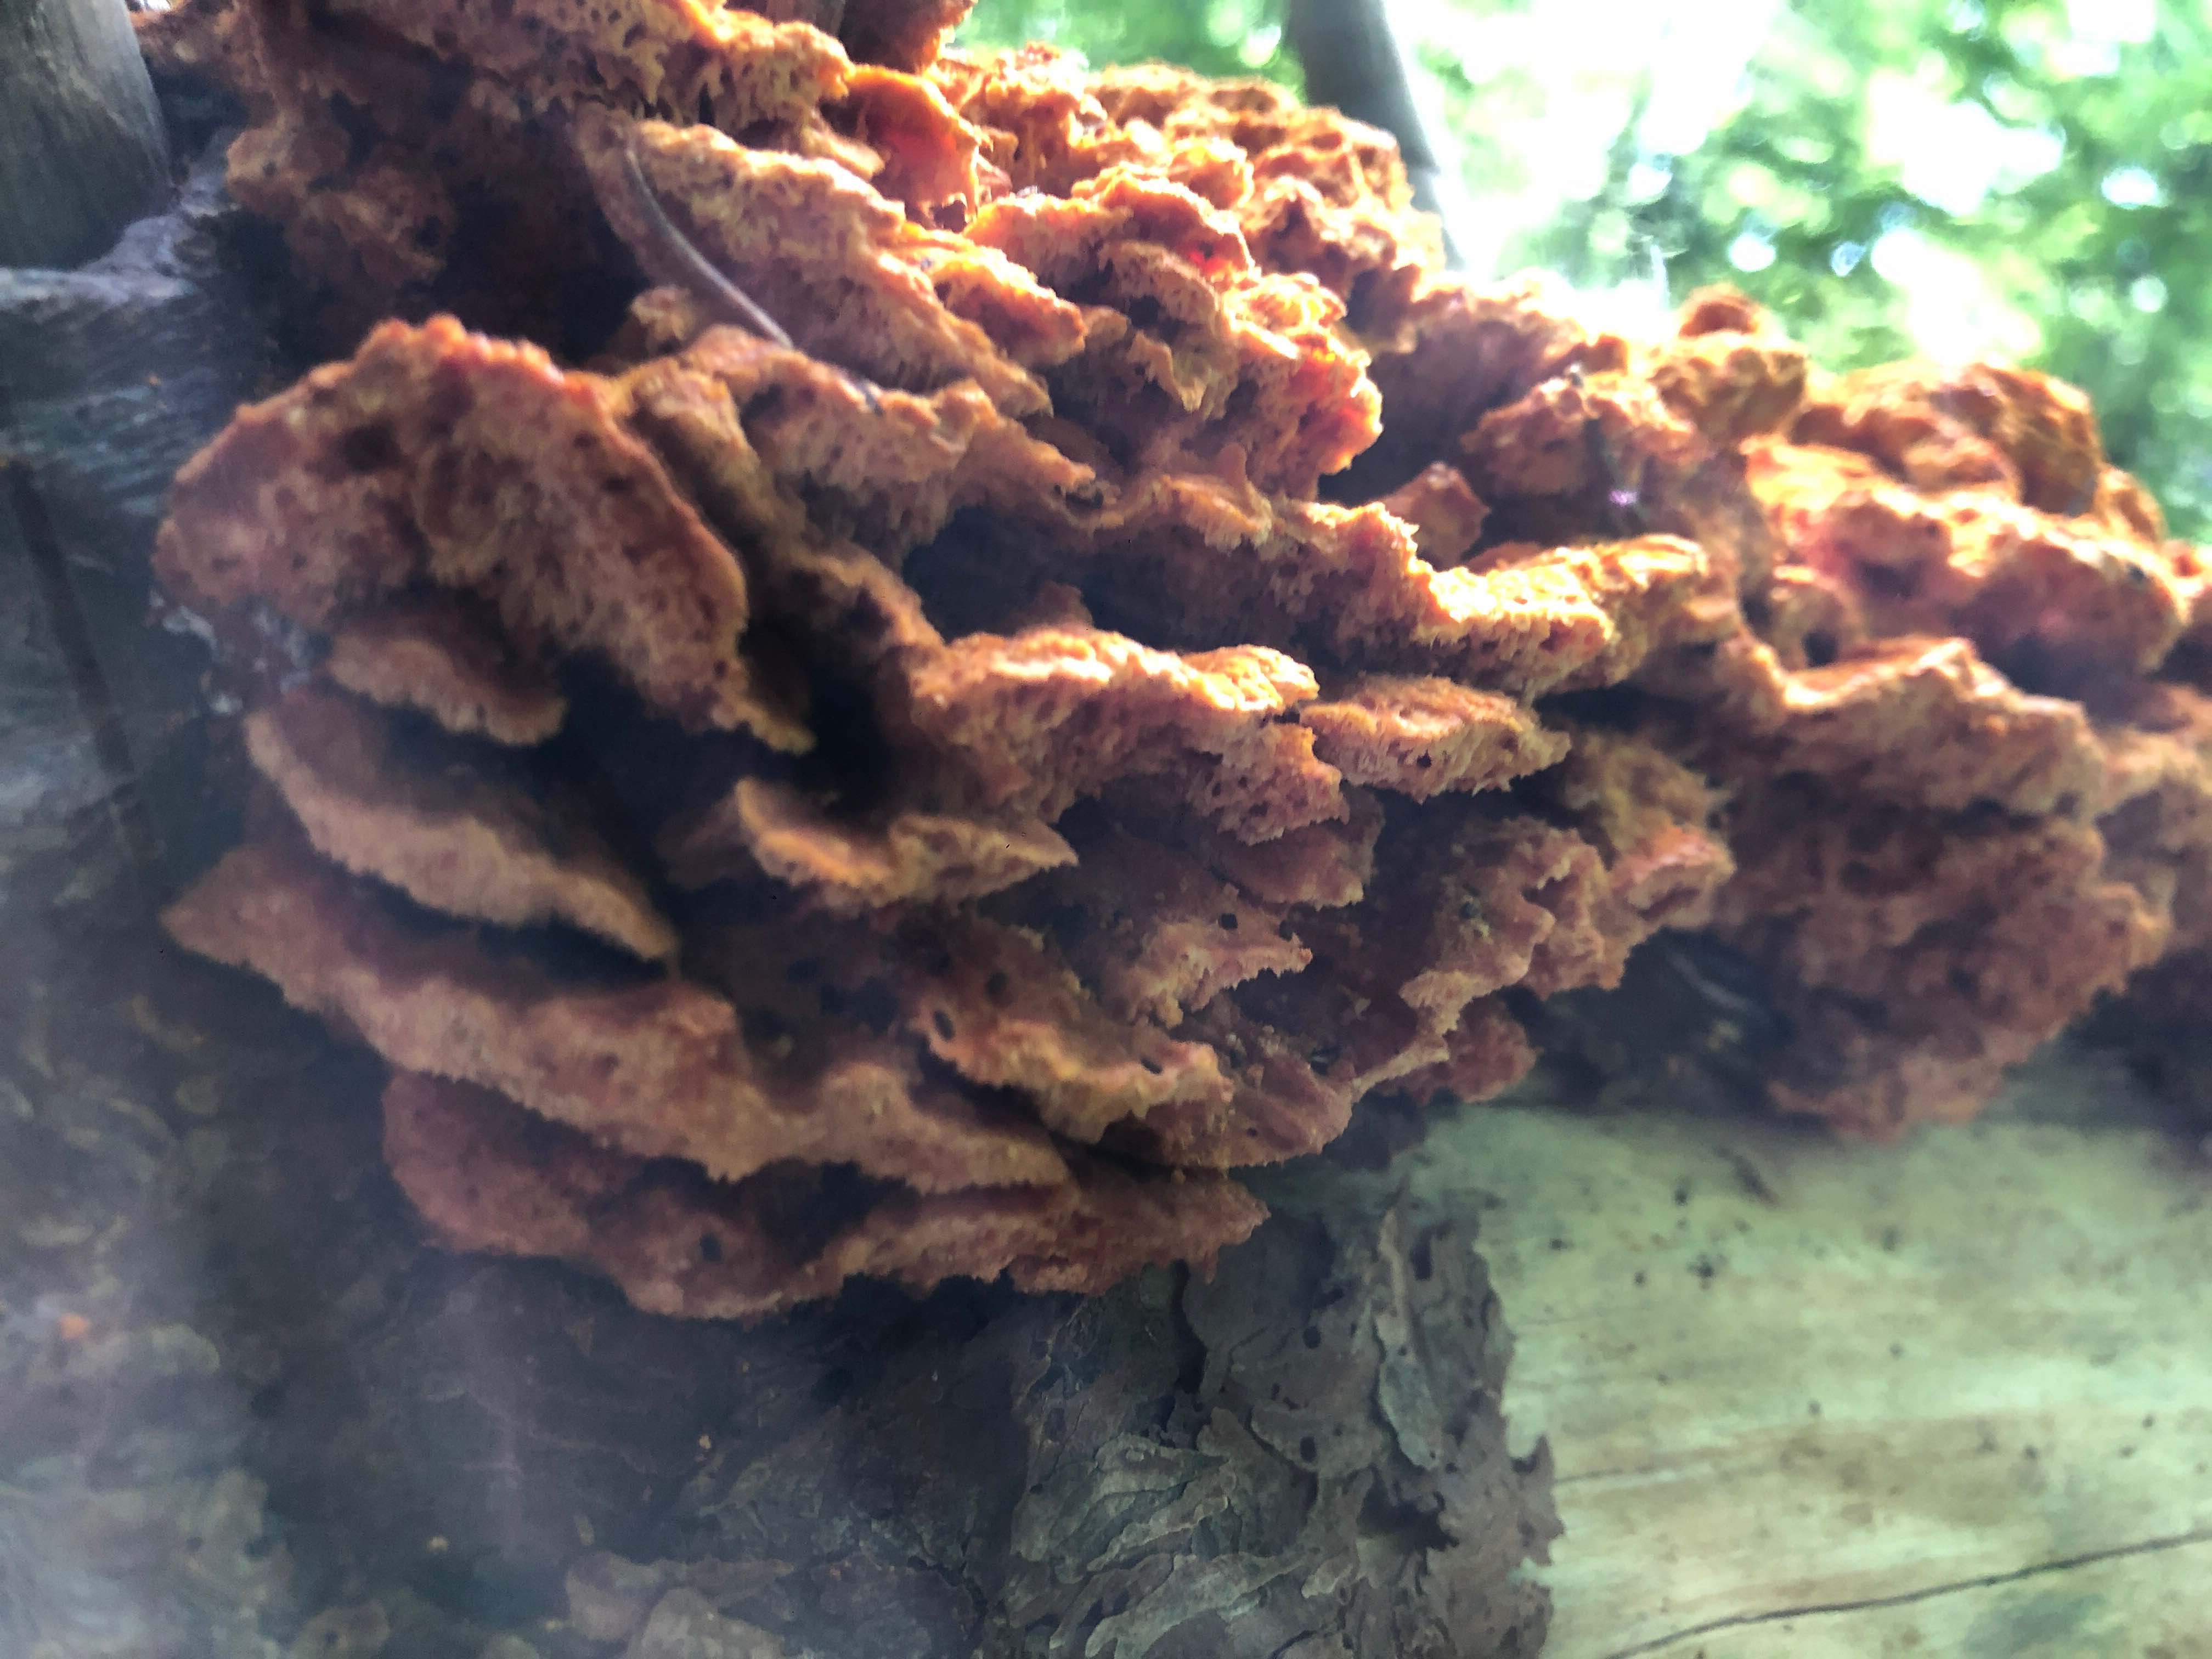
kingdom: Fungi
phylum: Basidiomycota
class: Agaricomycetes
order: Polyporales
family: Pycnoporellaceae
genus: Pycnoporellus
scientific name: Pycnoporellus fulgens
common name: flammeporesvamp
